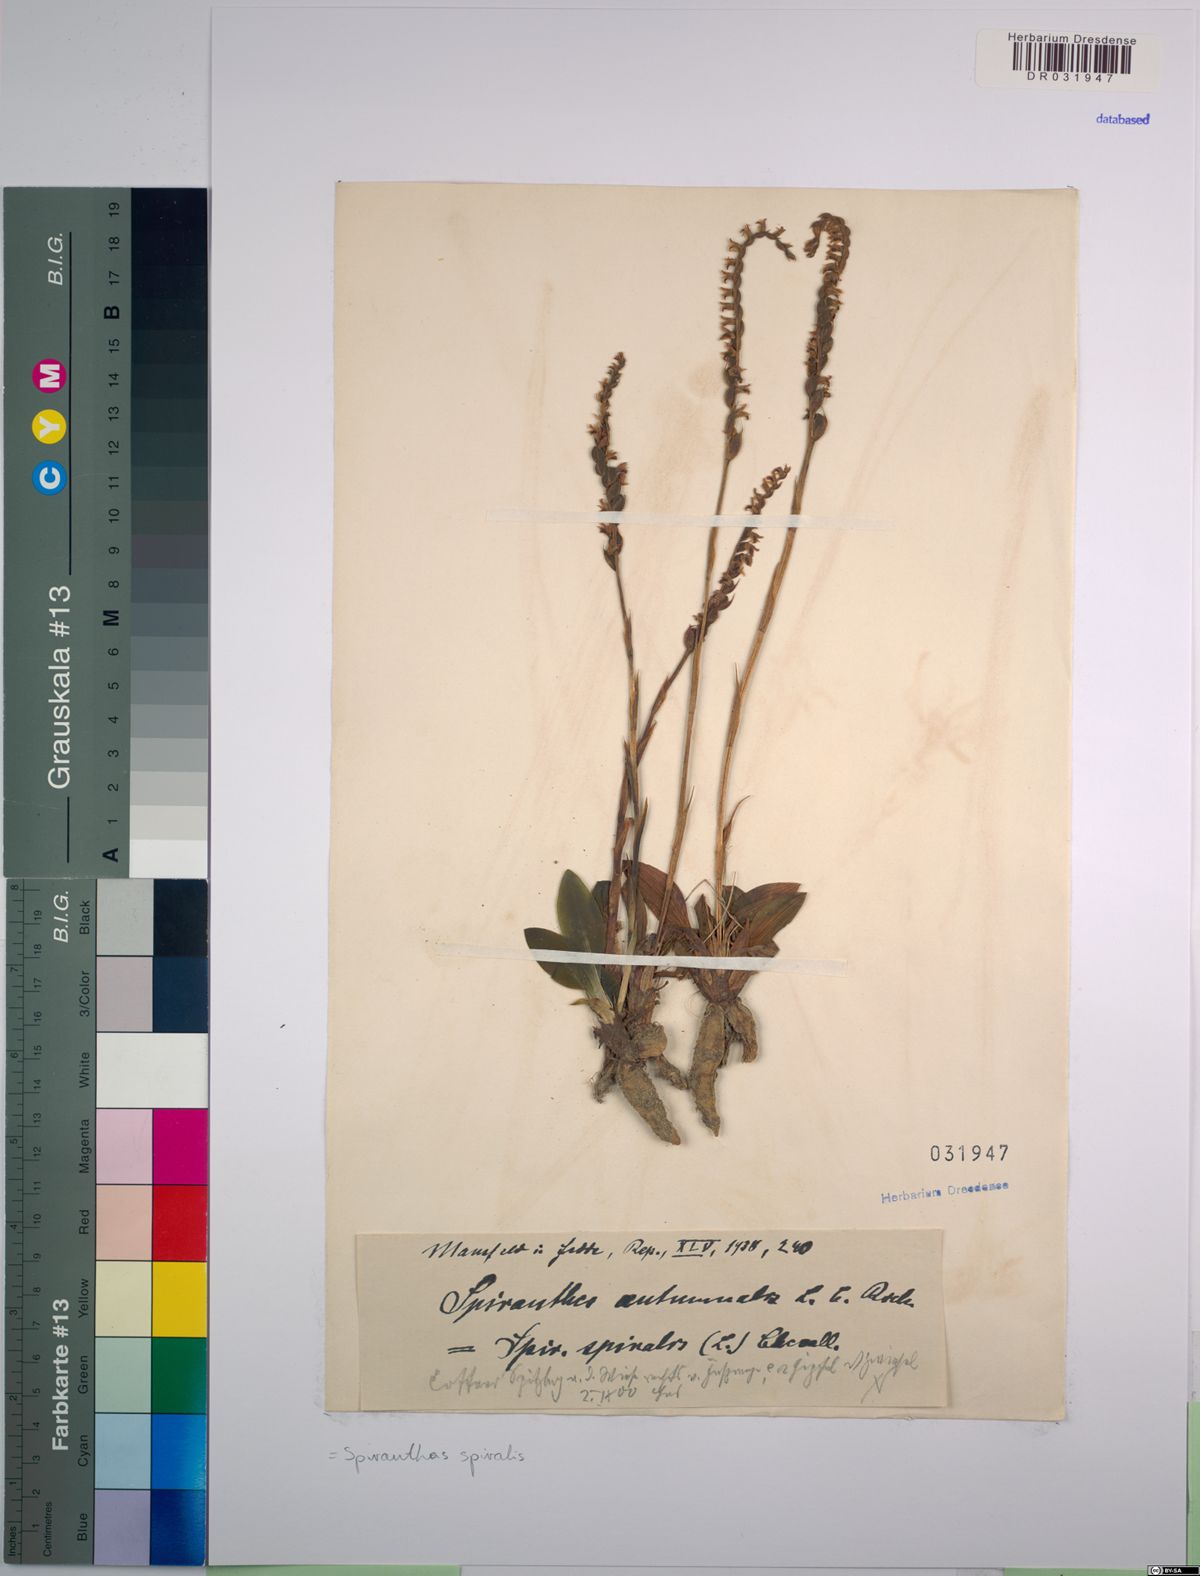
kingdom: Plantae
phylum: Tracheophyta
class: Liliopsida
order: Asparagales
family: Orchidaceae
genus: Spiranthes
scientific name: Spiranthes spiralis
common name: Autumn lady's-tresses
